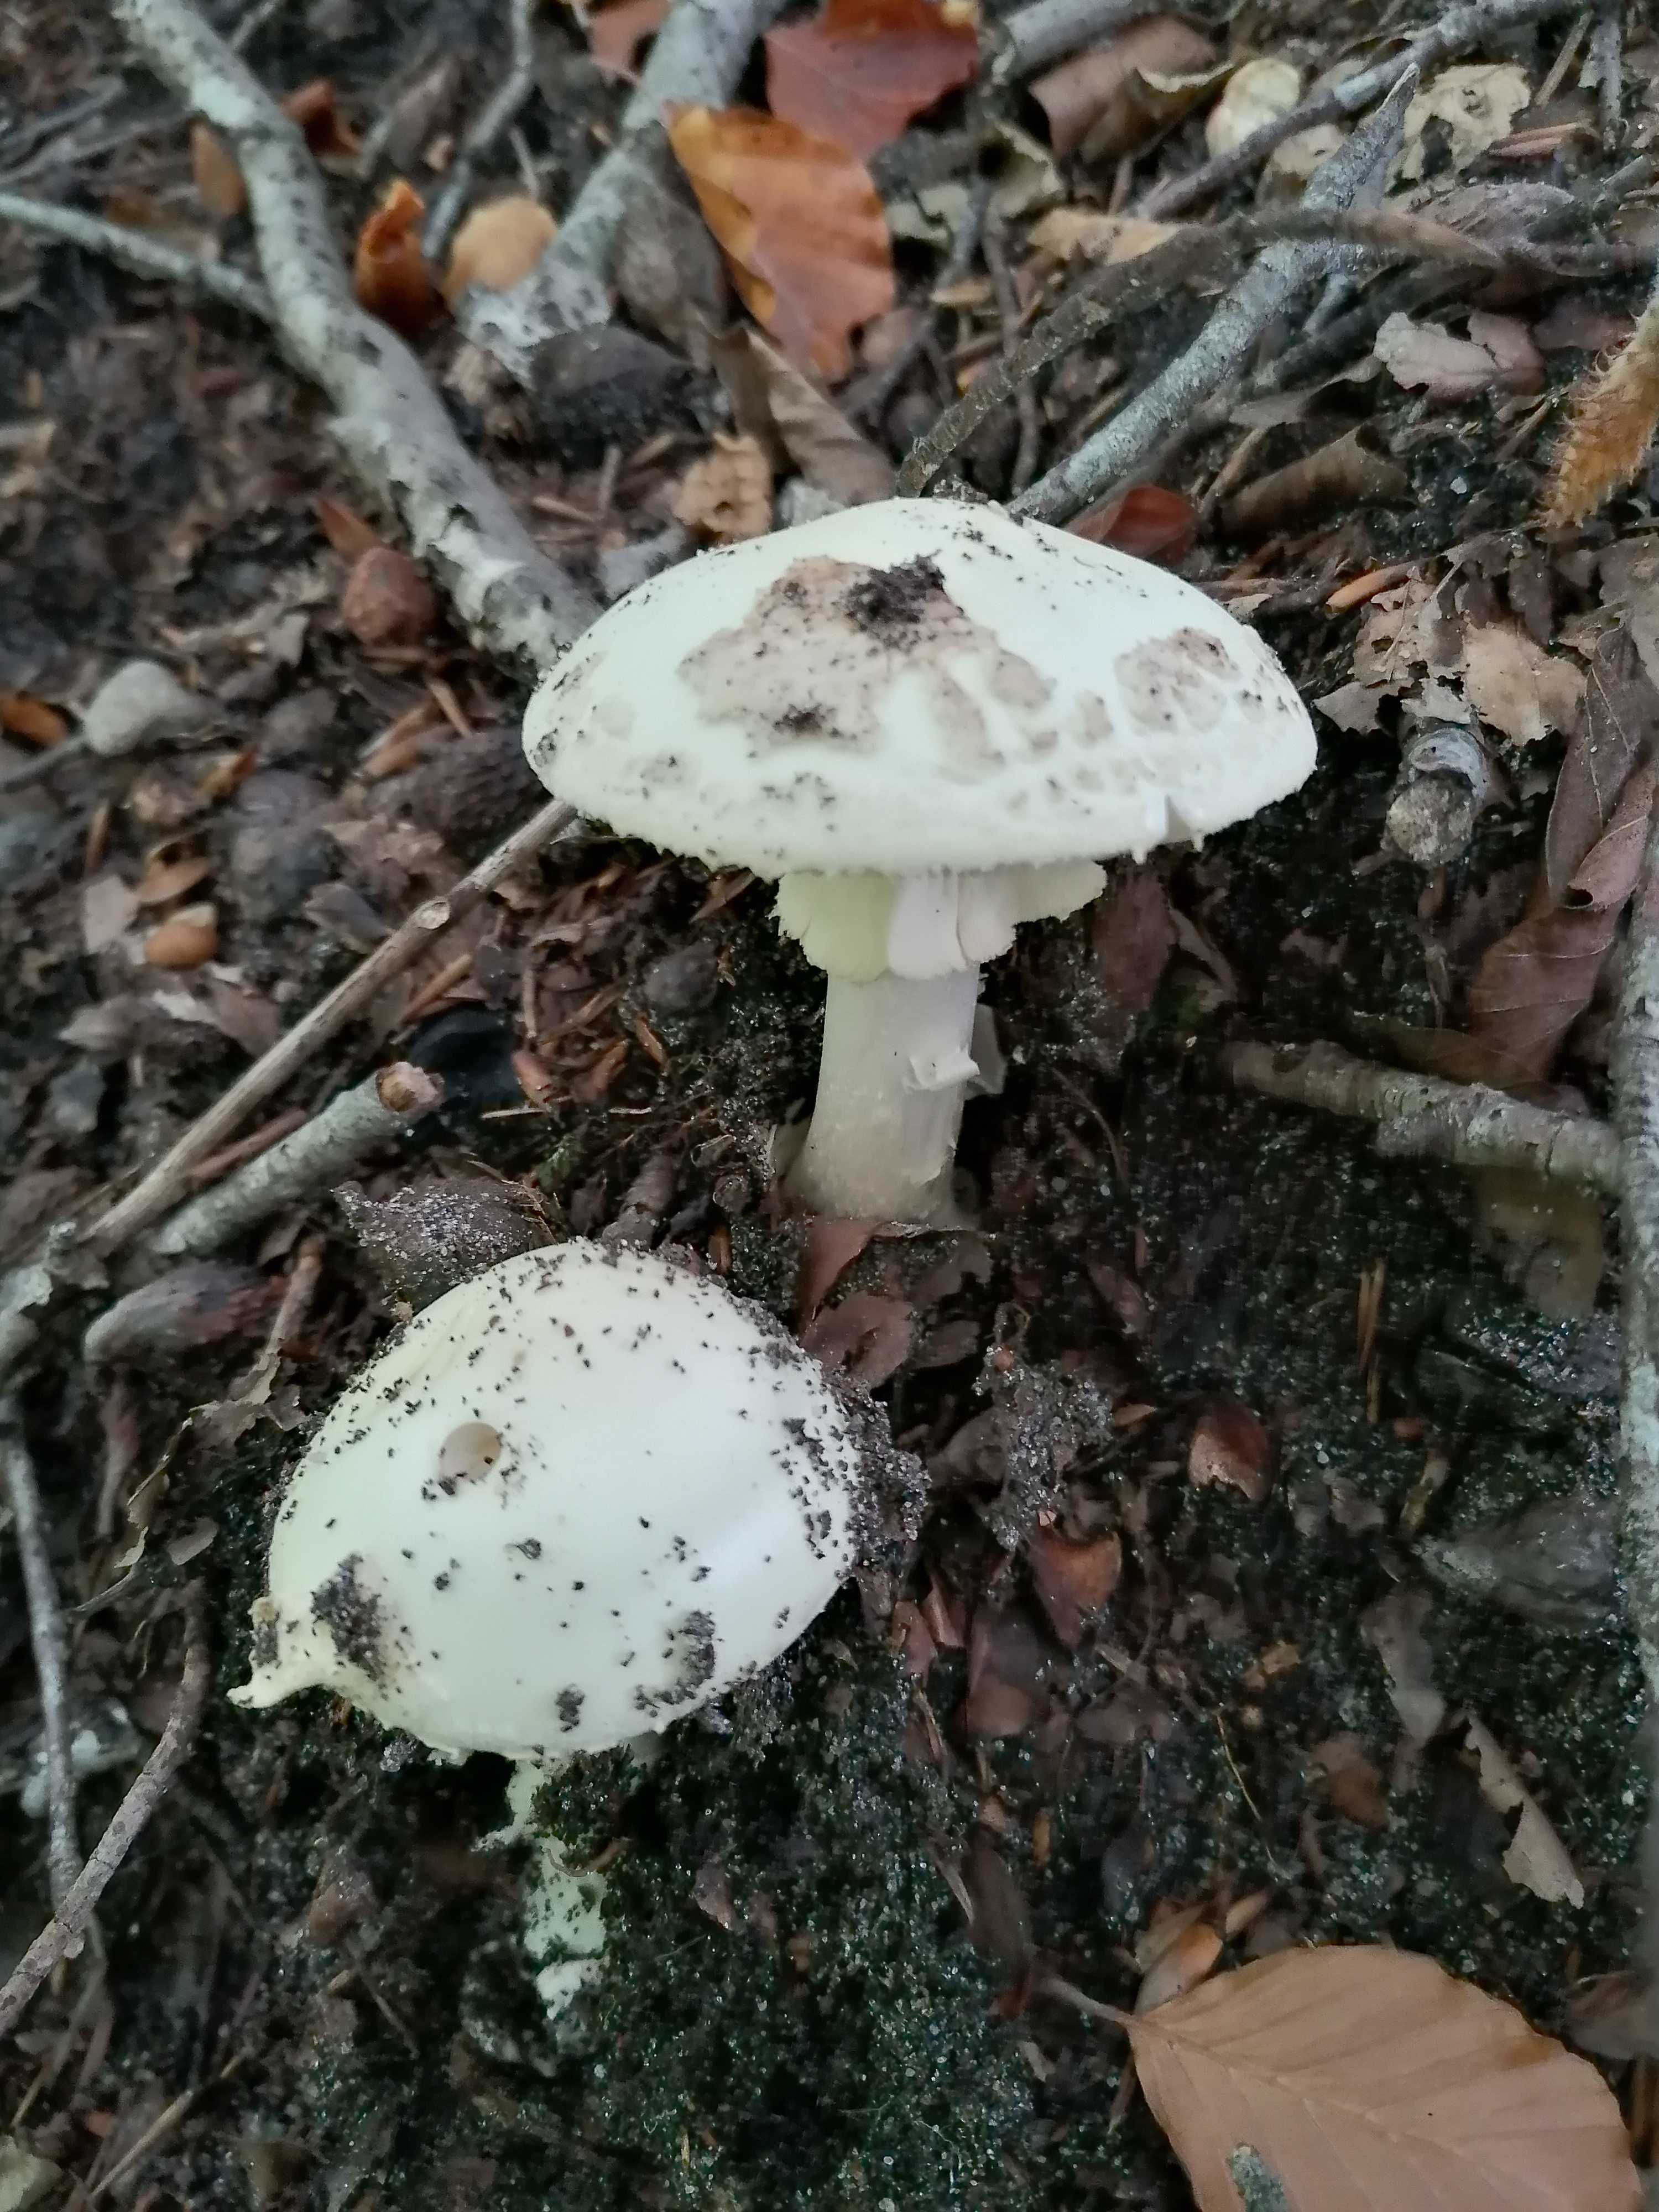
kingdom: Fungi
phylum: Basidiomycota
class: Agaricomycetes
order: Agaricales
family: Amanitaceae
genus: Amanita
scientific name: Amanita citrina
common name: kugleknoldet fluesvamp
